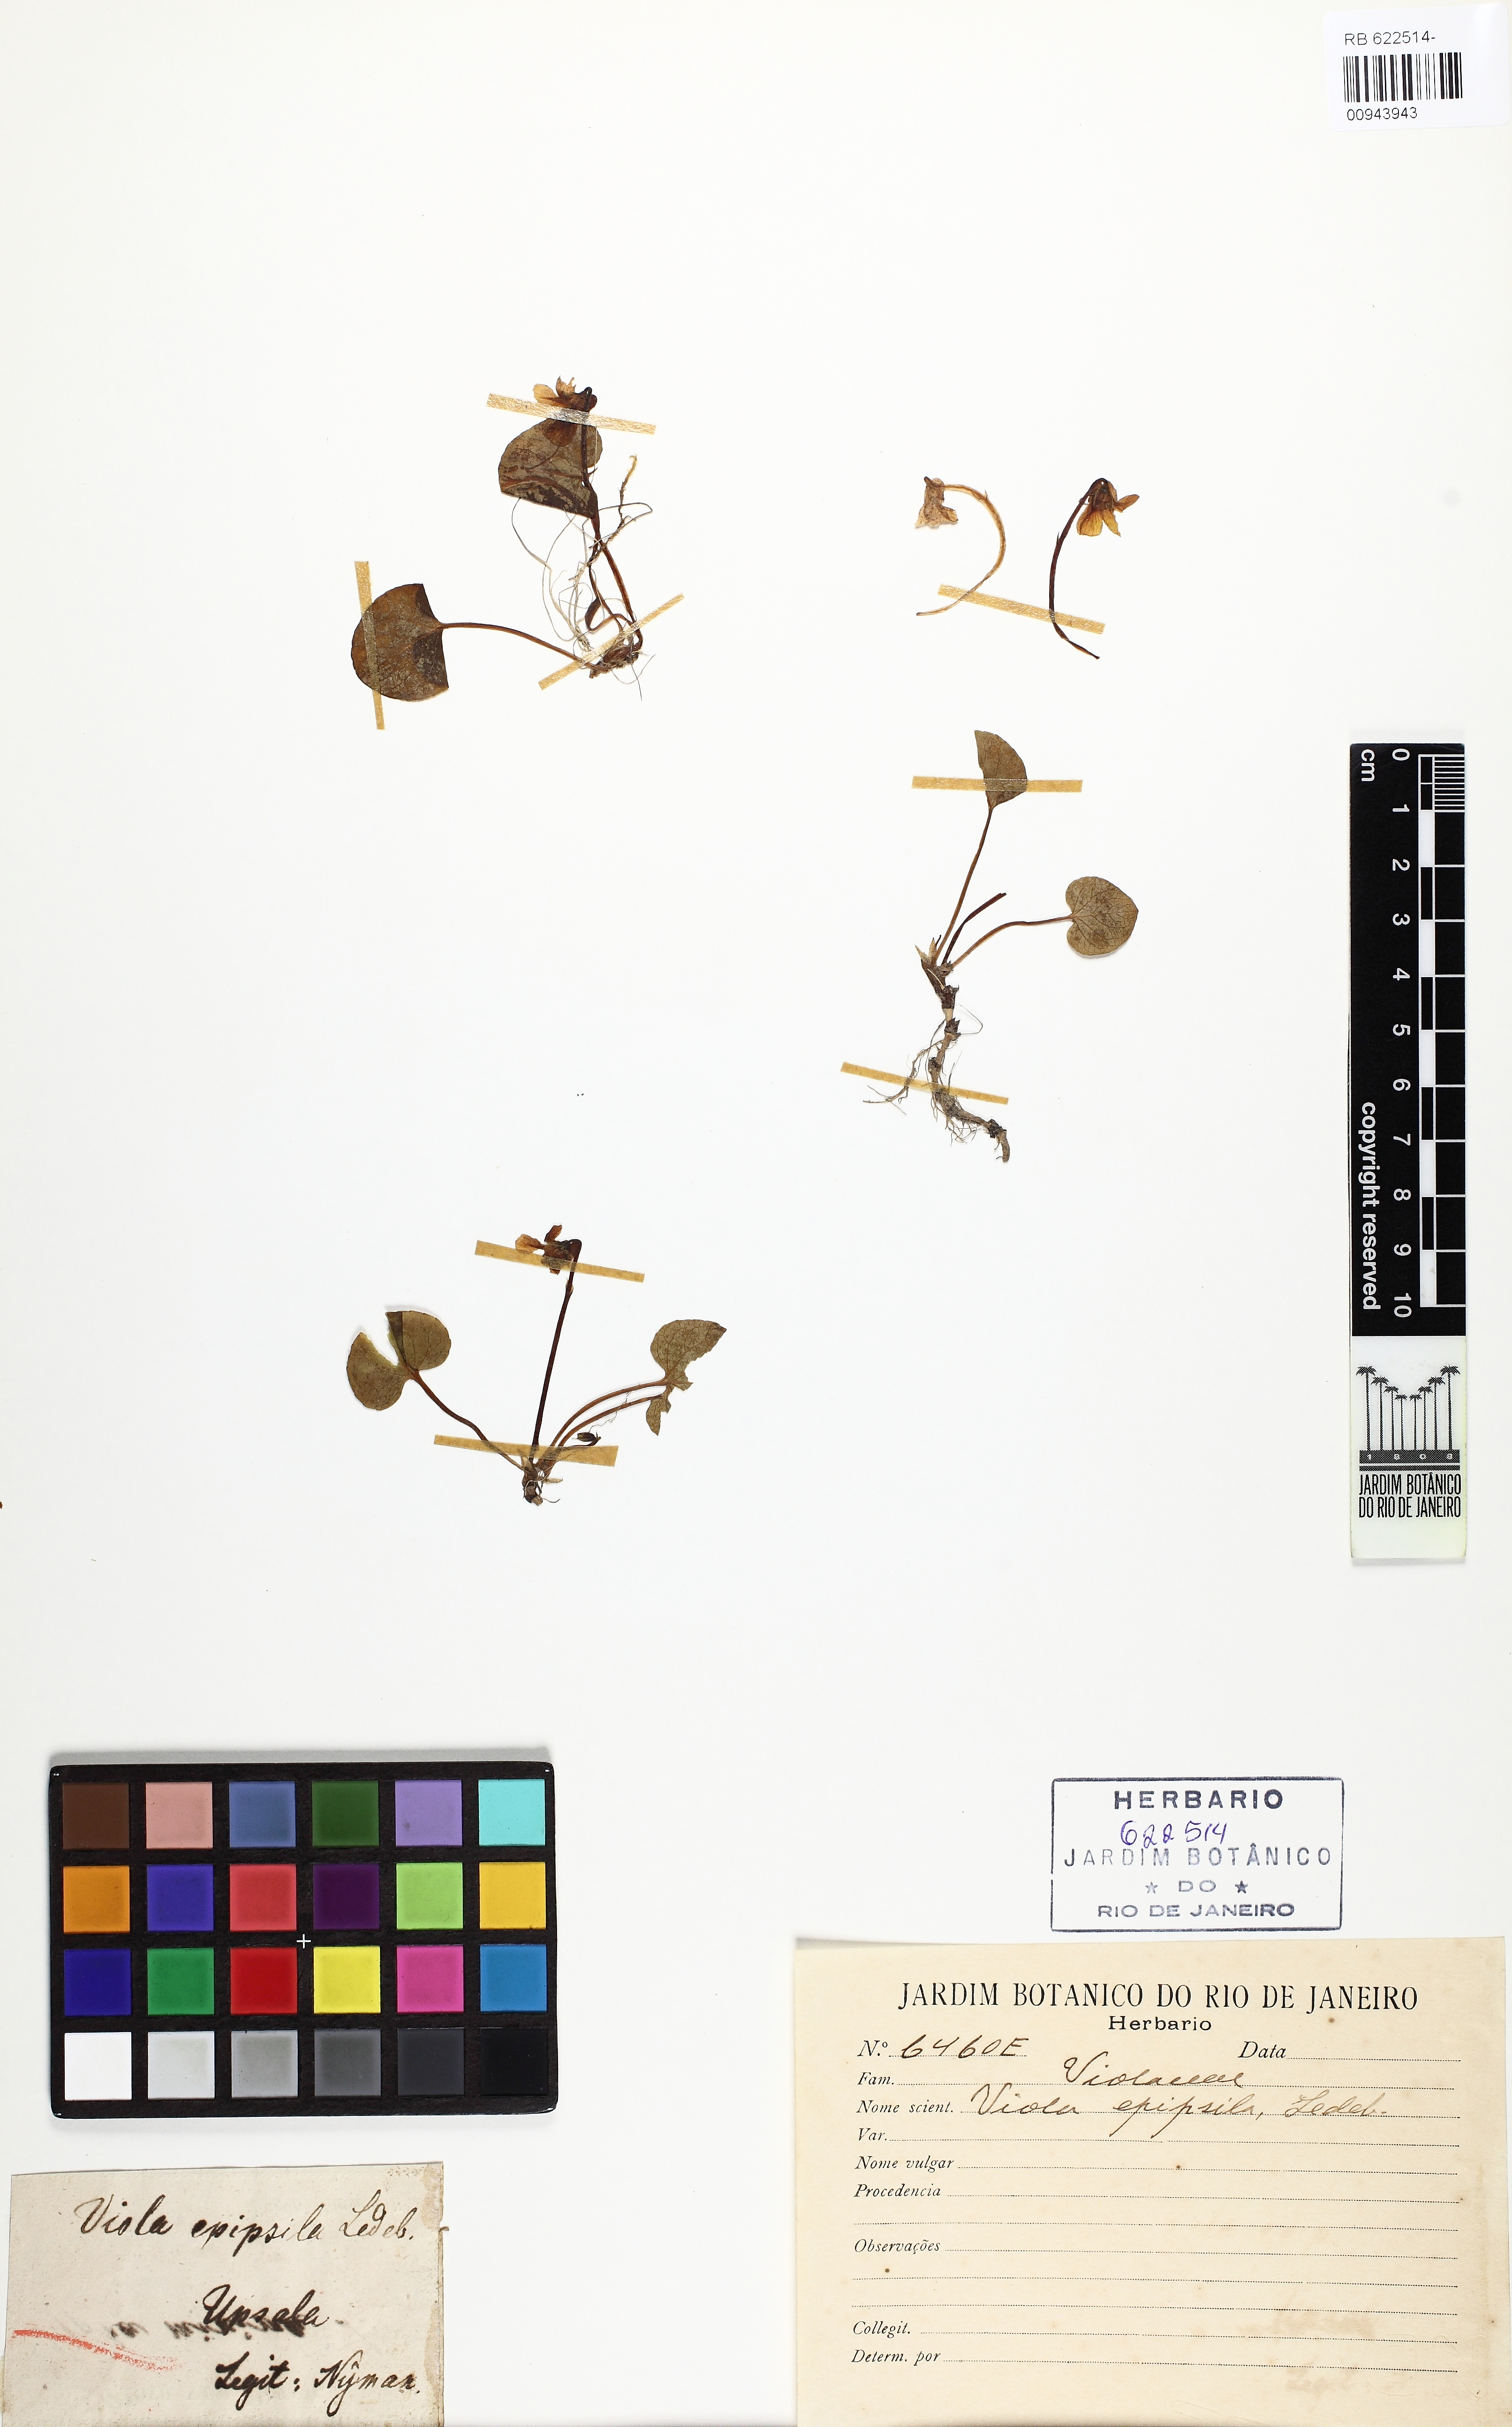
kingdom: Plantae
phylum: Tracheophyta
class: Magnoliopsida
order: Malpighiales
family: Violaceae
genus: Viola
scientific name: Viola epipsila
